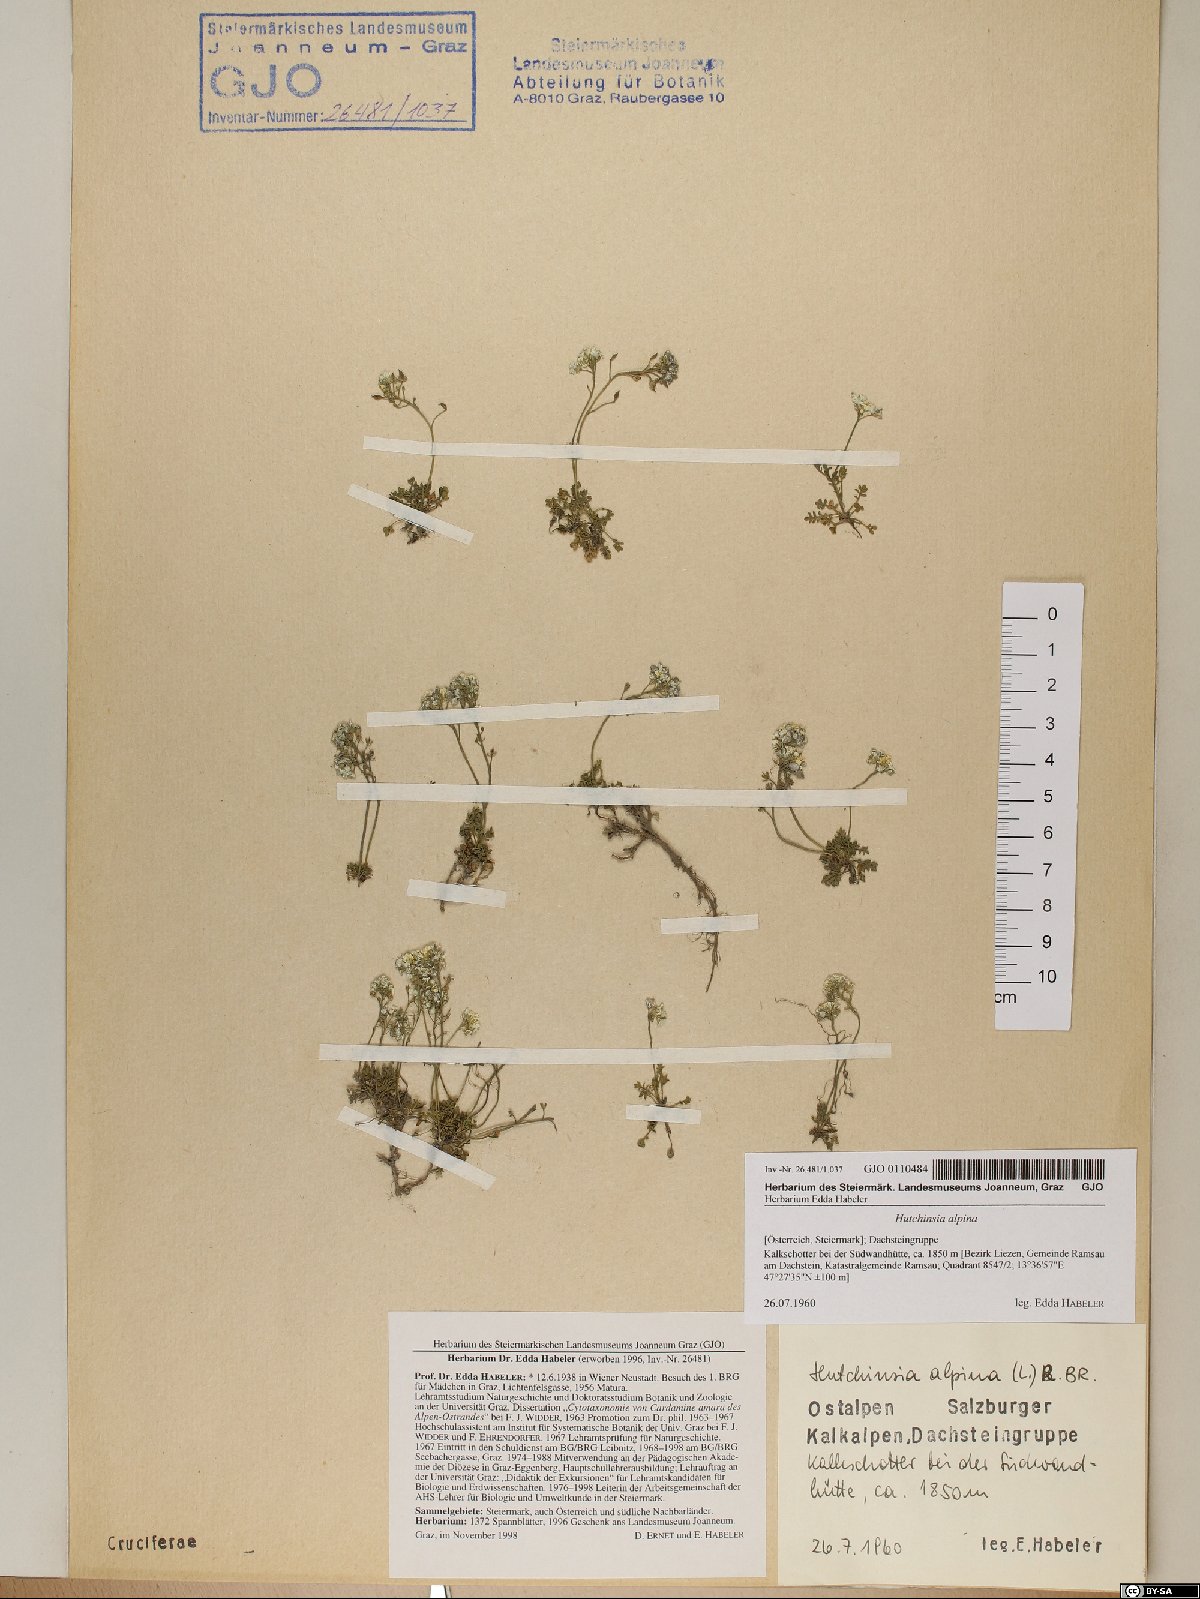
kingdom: Plantae
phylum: Tracheophyta
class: Magnoliopsida
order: Brassicales
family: Brassicaceae
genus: Hornungia
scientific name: Hornungia alpina
